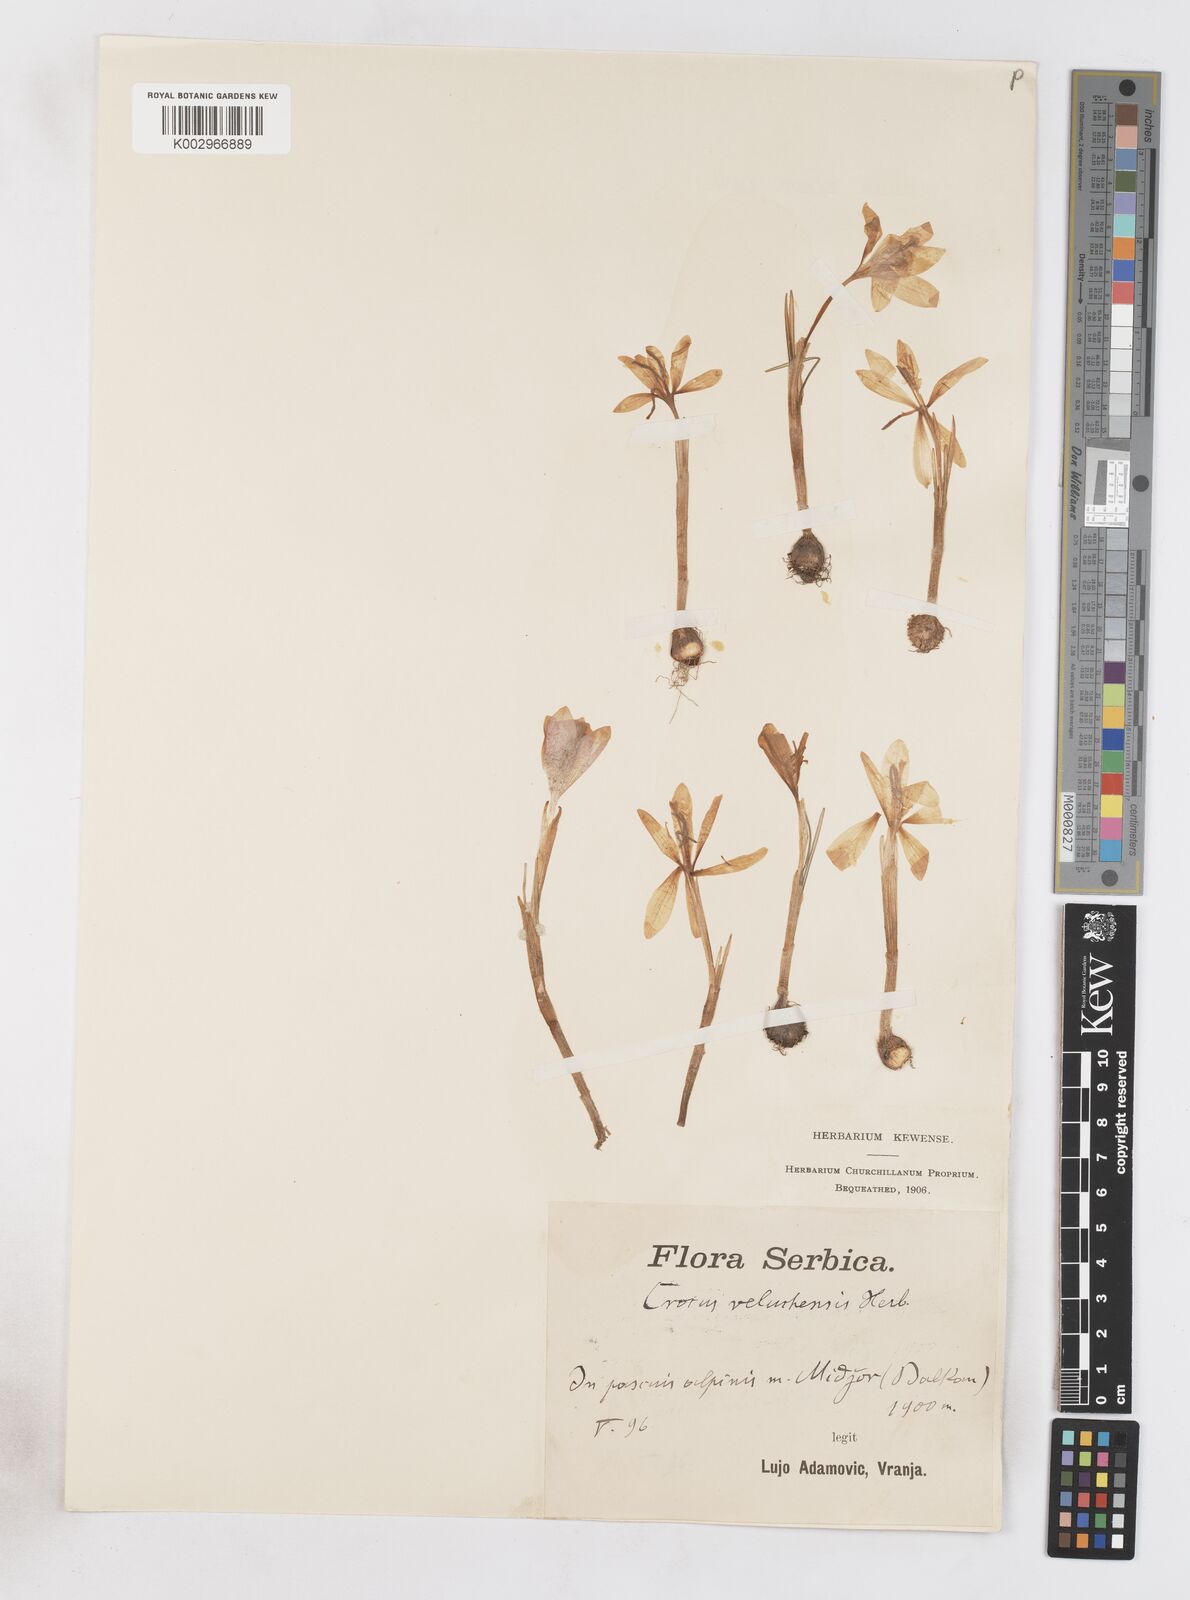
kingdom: Plantae
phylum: Tracheophyta
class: Liliopsida
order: Asparagales
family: Iridaceae
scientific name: Iridaceae
